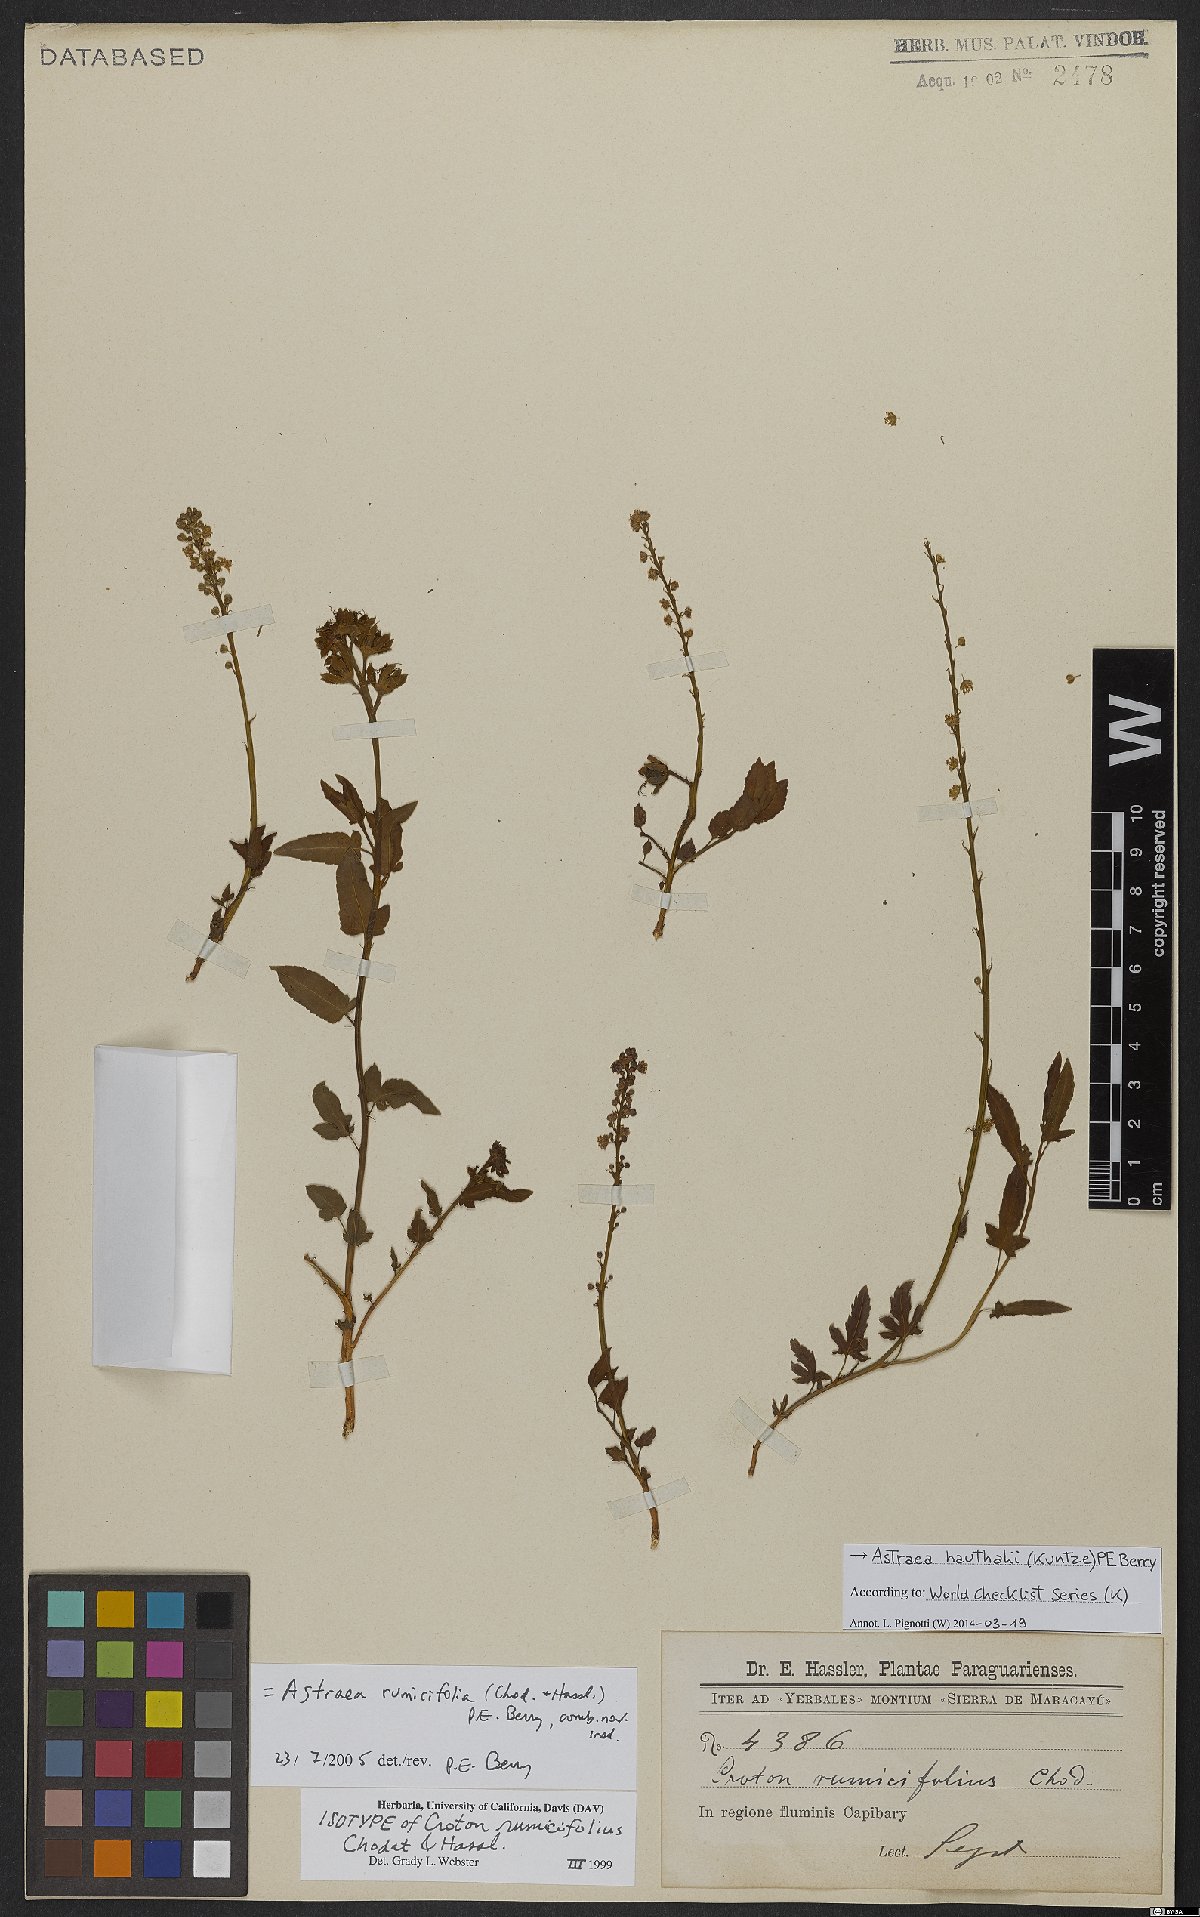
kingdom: Plantae
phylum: Tracheophyta
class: Magnoliopsida
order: Malpighiales
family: Euphorbiaceae
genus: Astraea
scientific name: Astraea cincta
